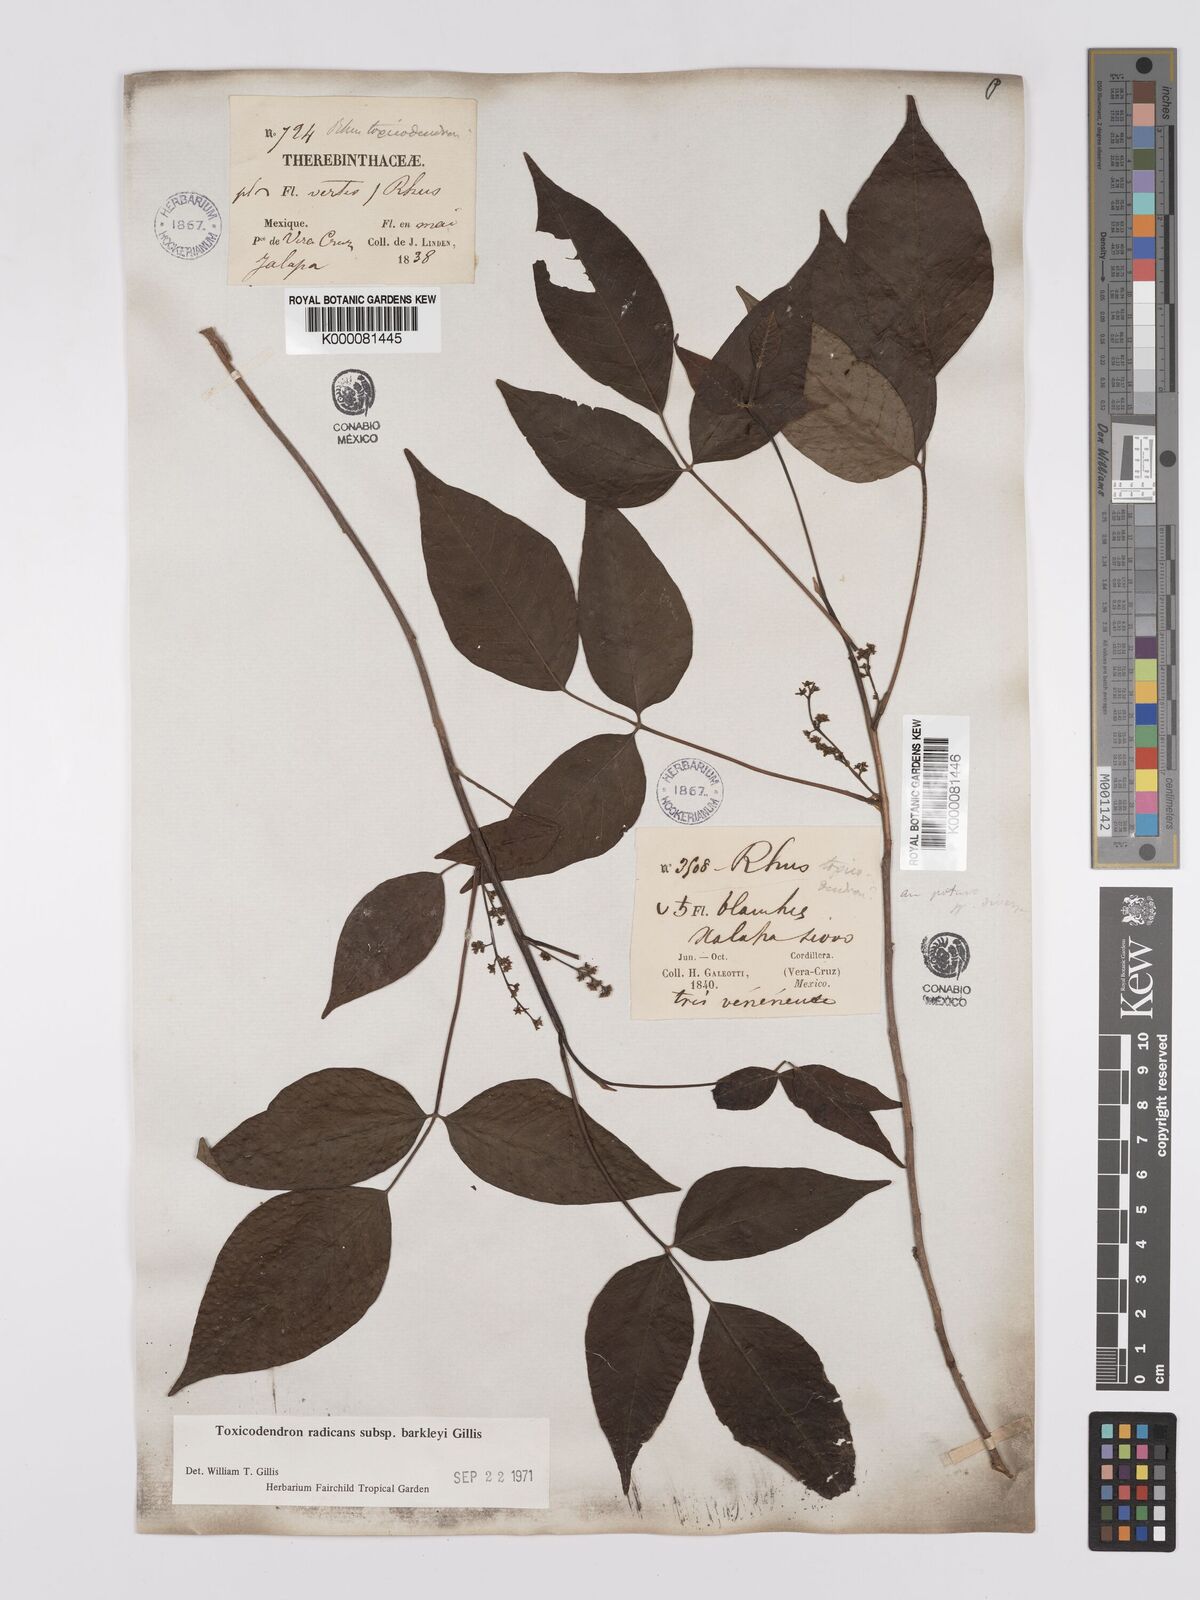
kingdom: Plantae
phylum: Tracheophyta
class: Magnoliopsida
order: Sapindales
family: Anacardiaceae
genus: Toxicodendron
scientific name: Toxicodendron radicans
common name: Poison ivy
